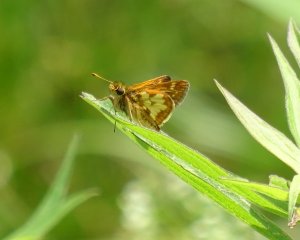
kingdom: Animalia
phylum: Arthropoda
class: Insecta
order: Lepidoptera
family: Hesperiidae
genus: Polites
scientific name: Polites coras
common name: Peck's Skipper
